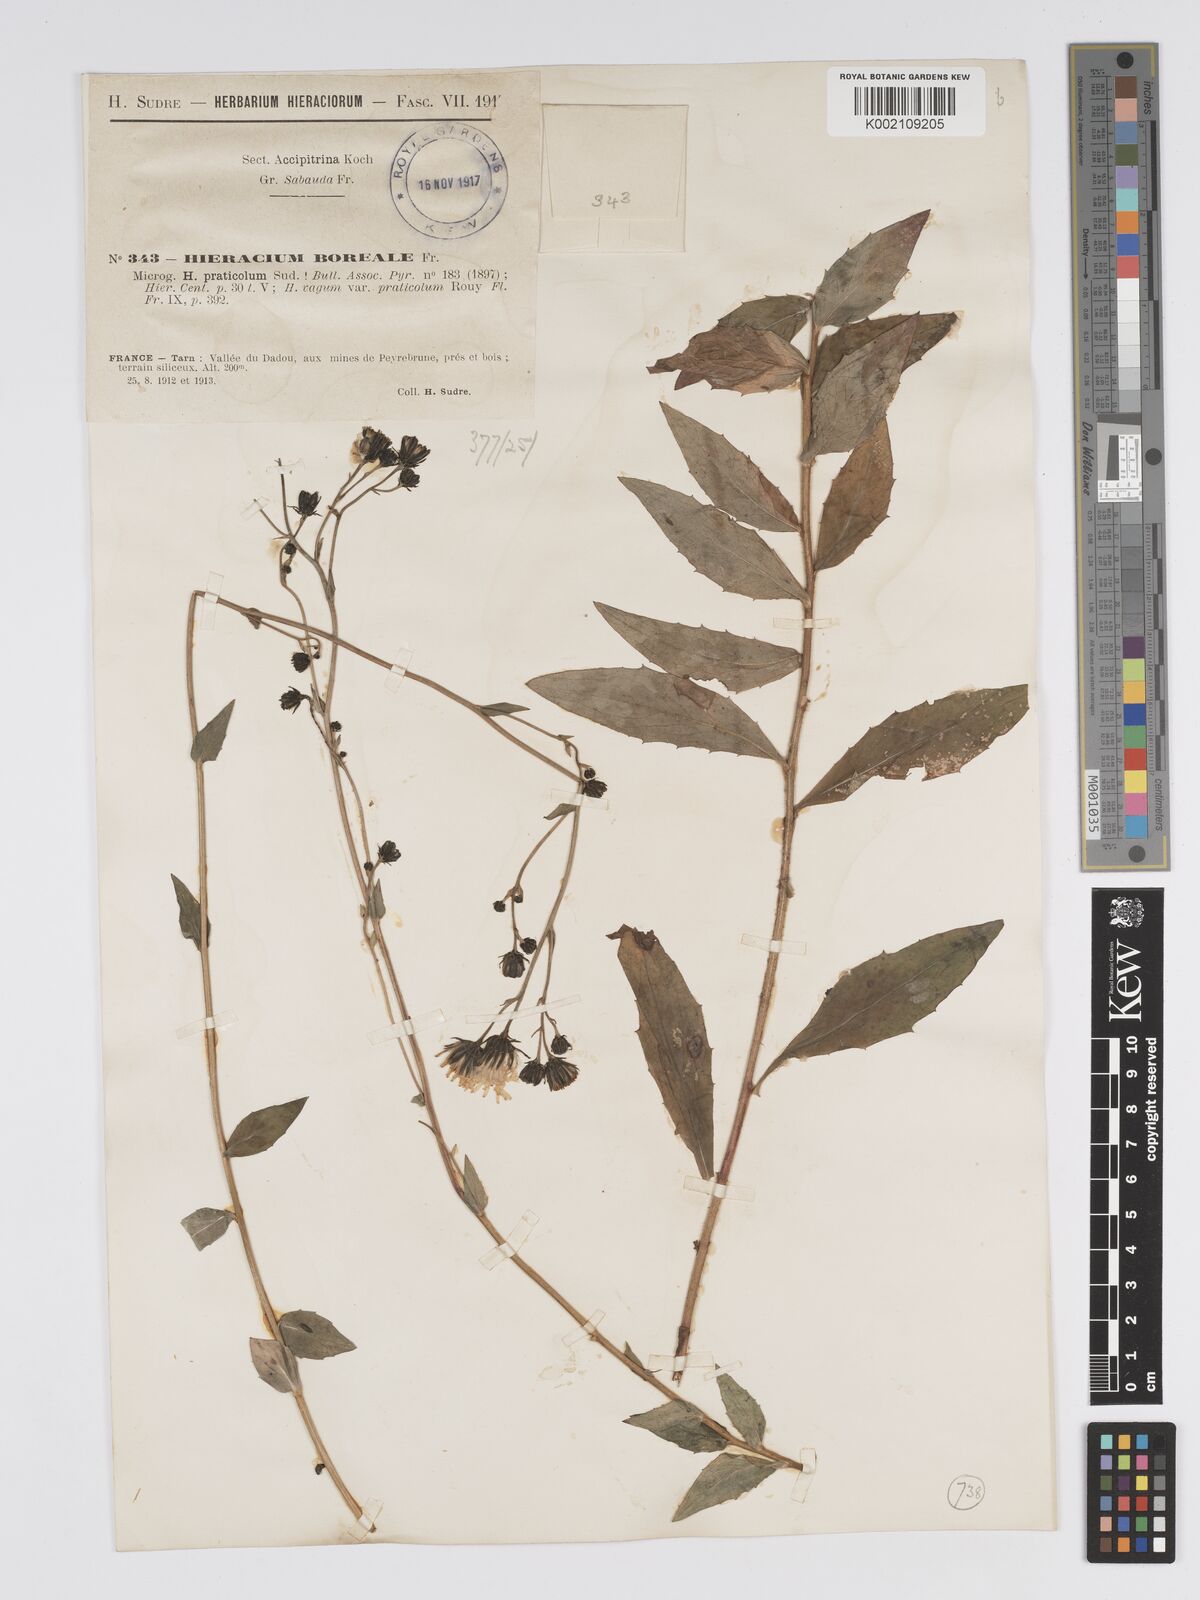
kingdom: Plantae
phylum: Tracheophyta
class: Magnoliopsida
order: Asterales
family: Asteraceae
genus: Hieracium
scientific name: Hieracium sabaudum
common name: New england hawkweed
